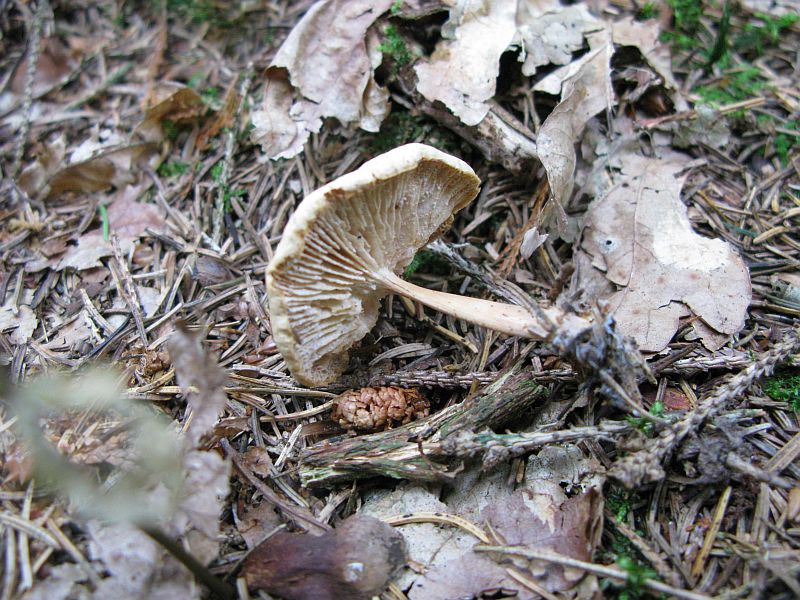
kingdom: Fungi
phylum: Basidiomycota
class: Agaricomycetes
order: Agaricales
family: Omphalotaceae
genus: Gymnopus
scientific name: Gymnopus dryophilus
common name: løv-fladhat
